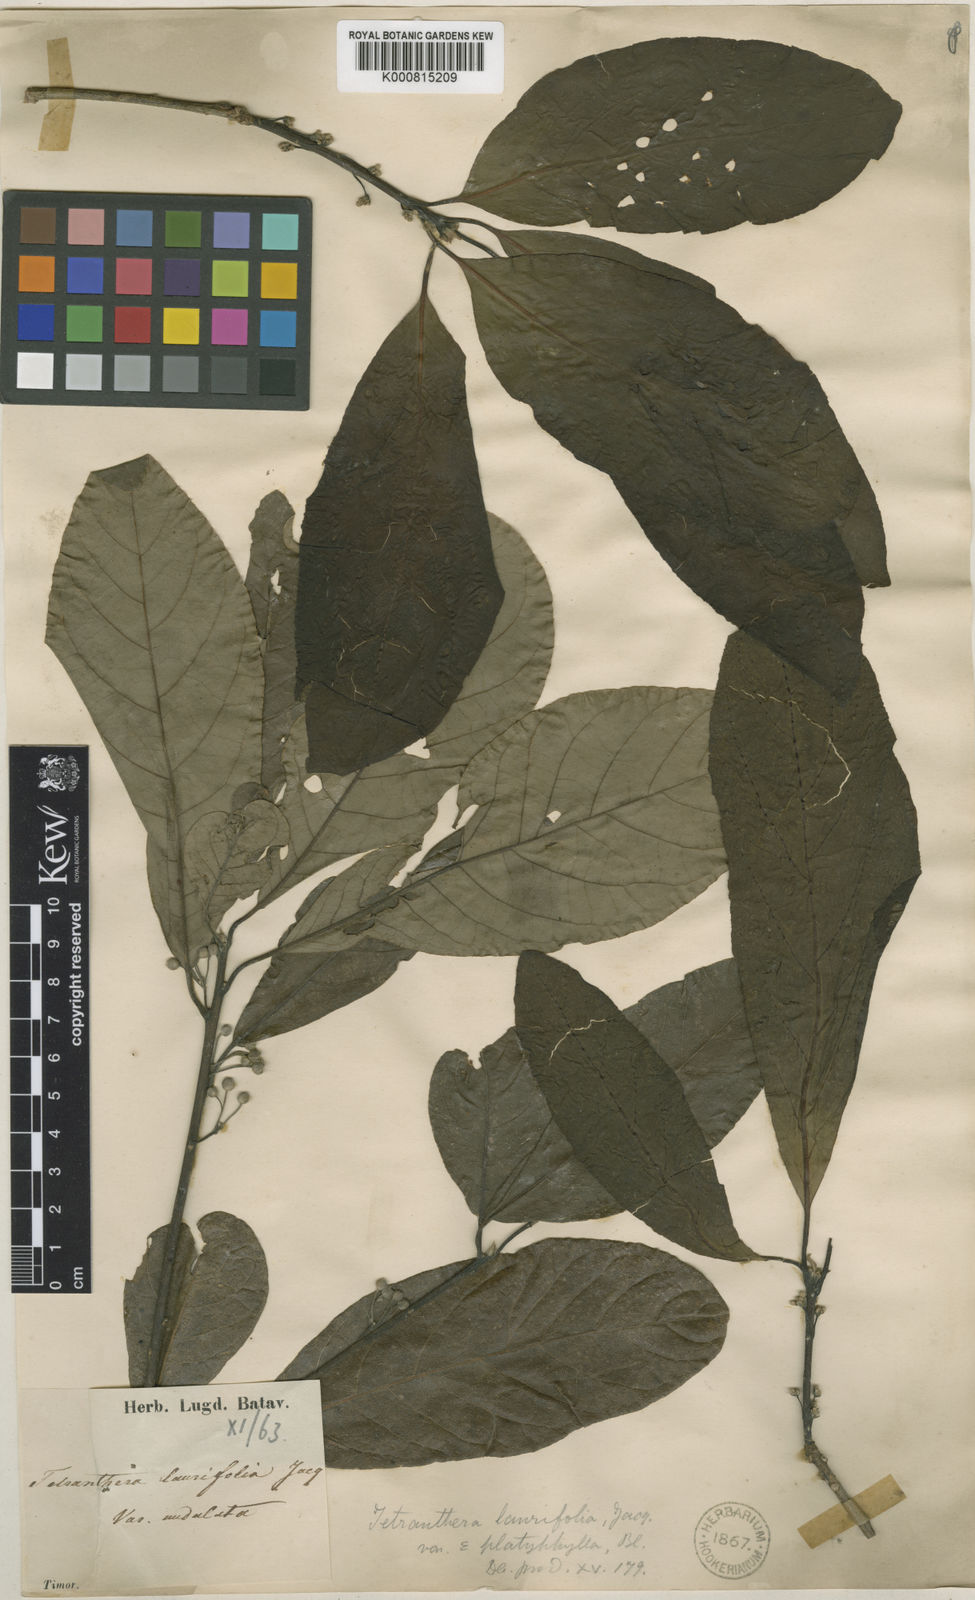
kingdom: Plantae
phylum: Tracheophyta
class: Magnoliopsida
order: Laurales
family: Lauraceae
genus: Litsea
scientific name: Litsea glutinosa
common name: Indian-laurel
